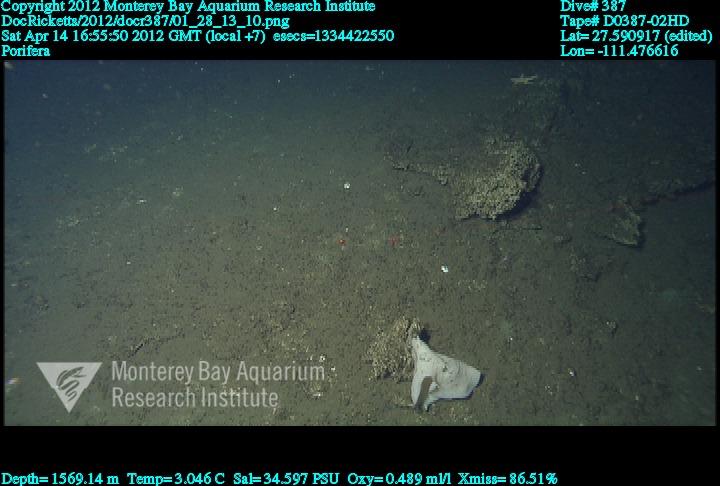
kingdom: Animalia
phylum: Porifera
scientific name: Porifera
